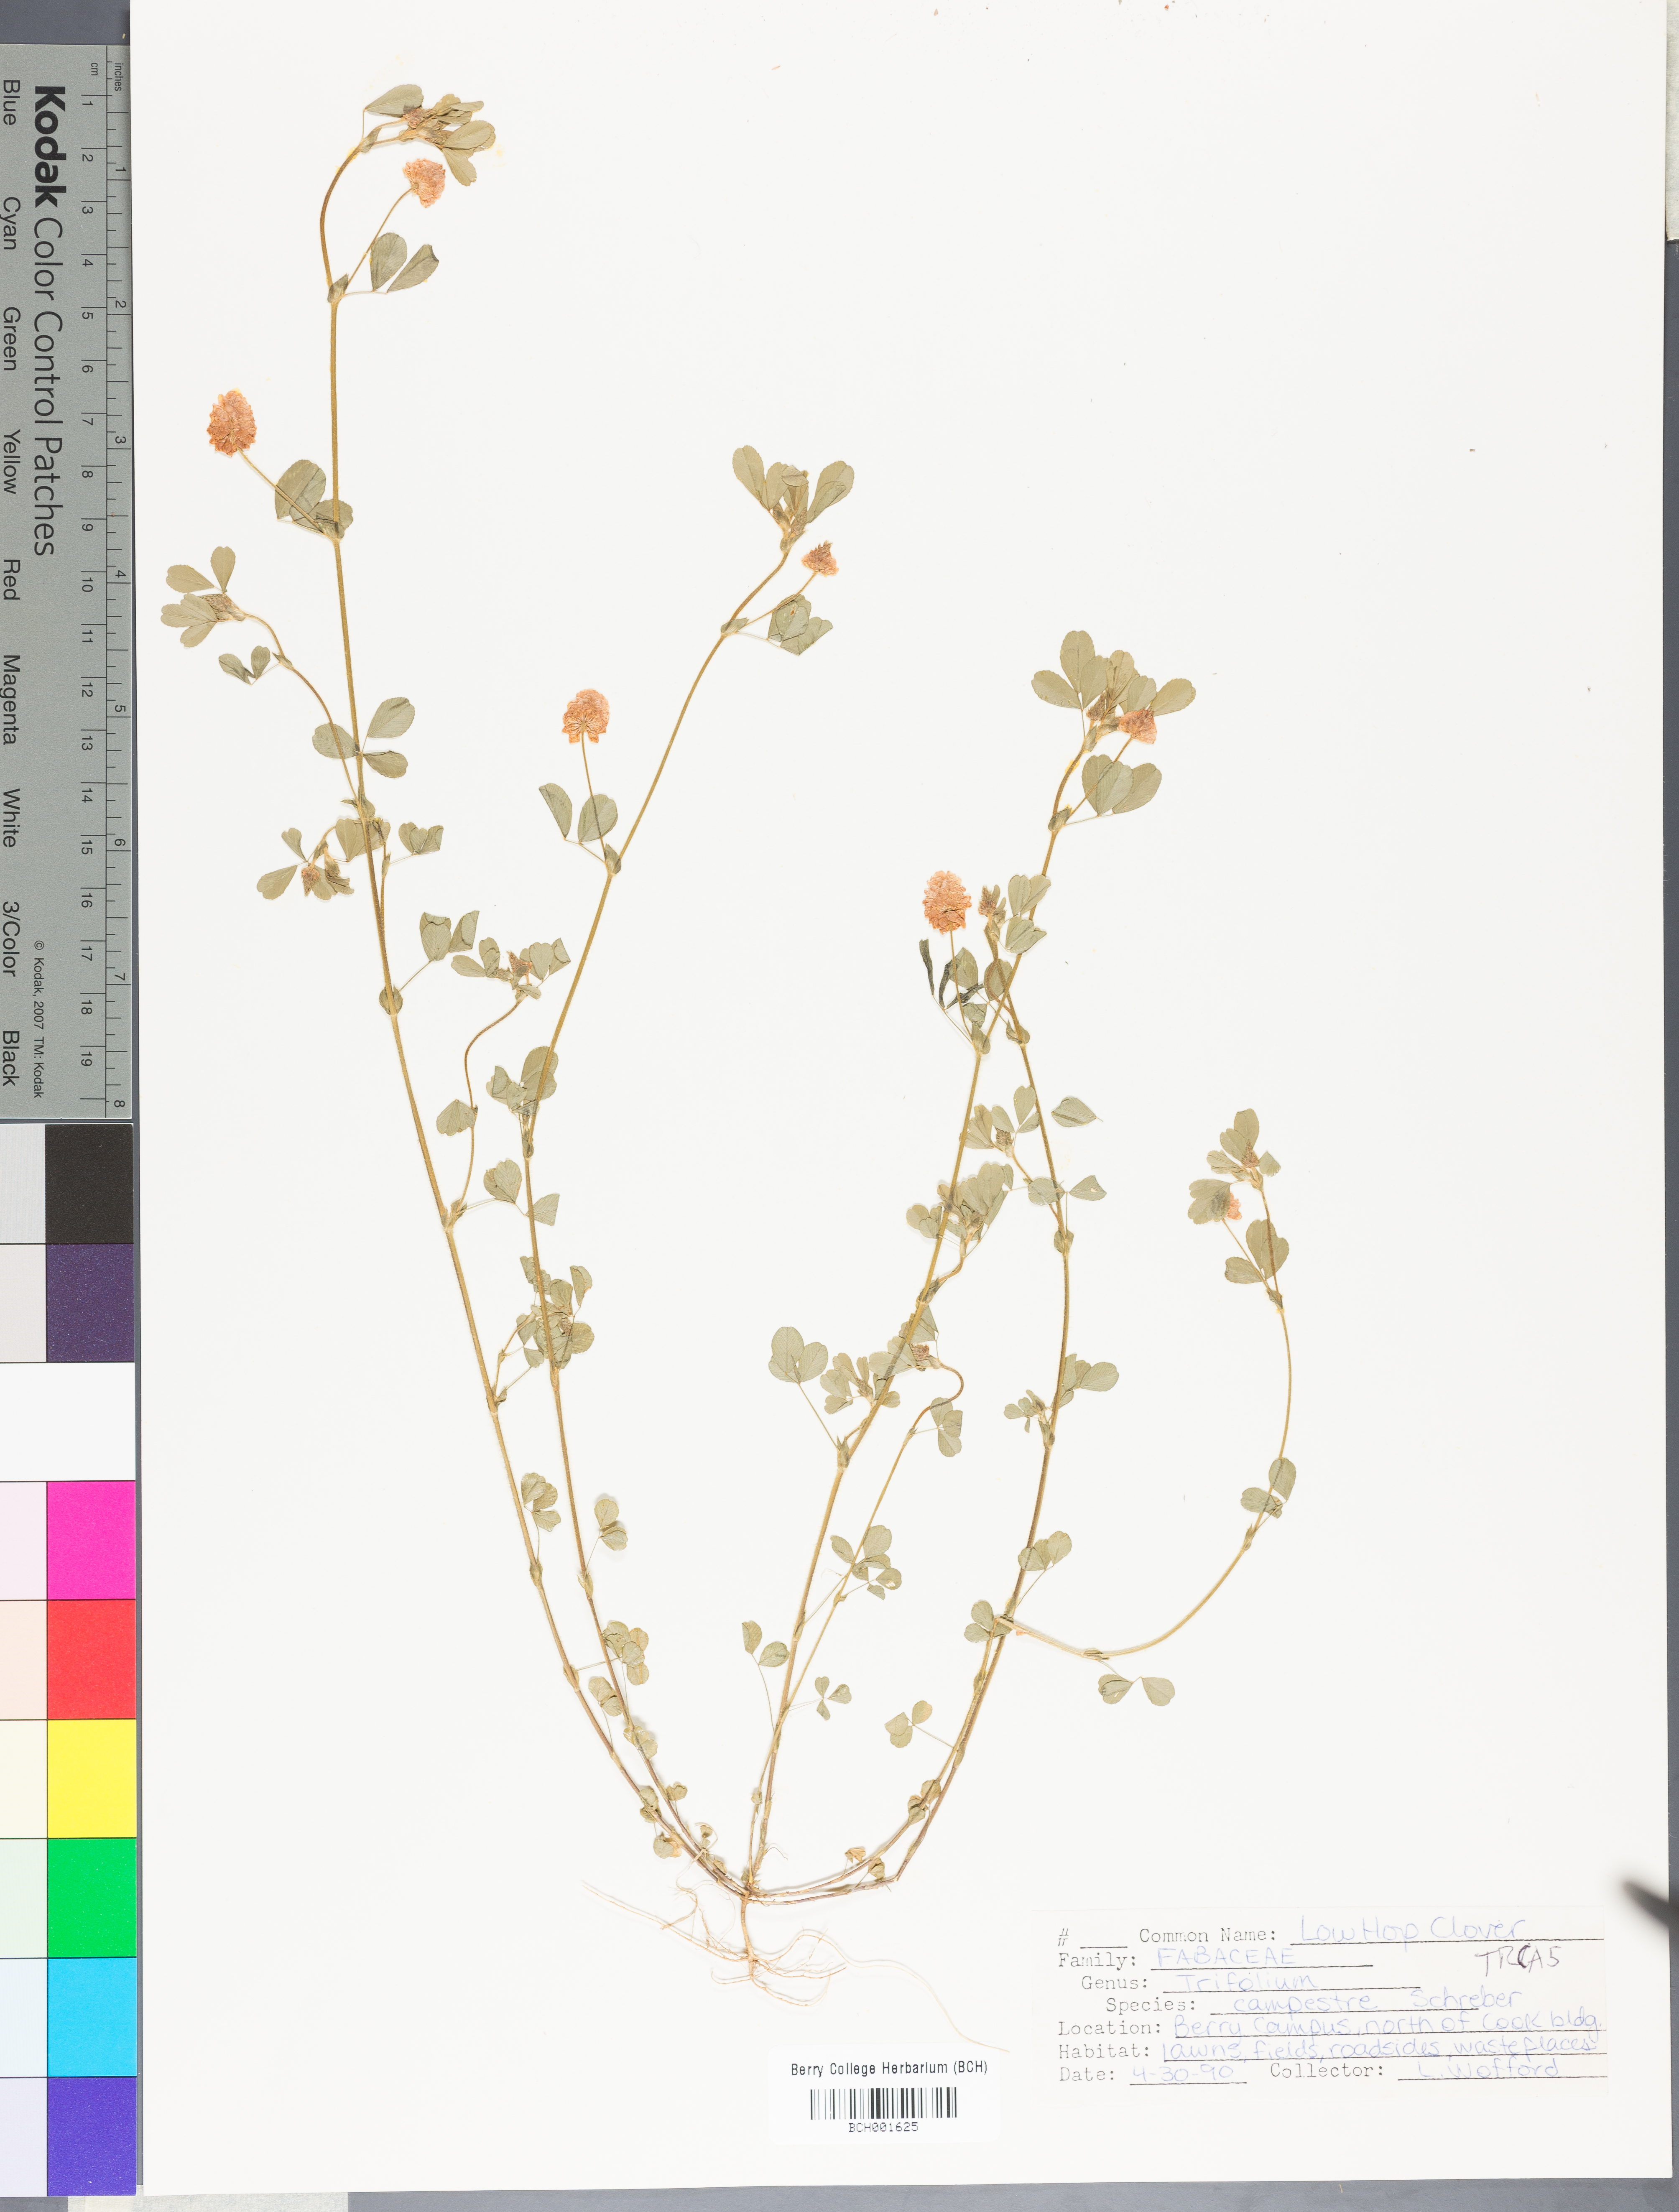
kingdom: Plantae
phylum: Tracheophyta
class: Magnoliopsida
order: Fabales
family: Fabaceae
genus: Trifolium
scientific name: Trifolium campestre
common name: Field clover
